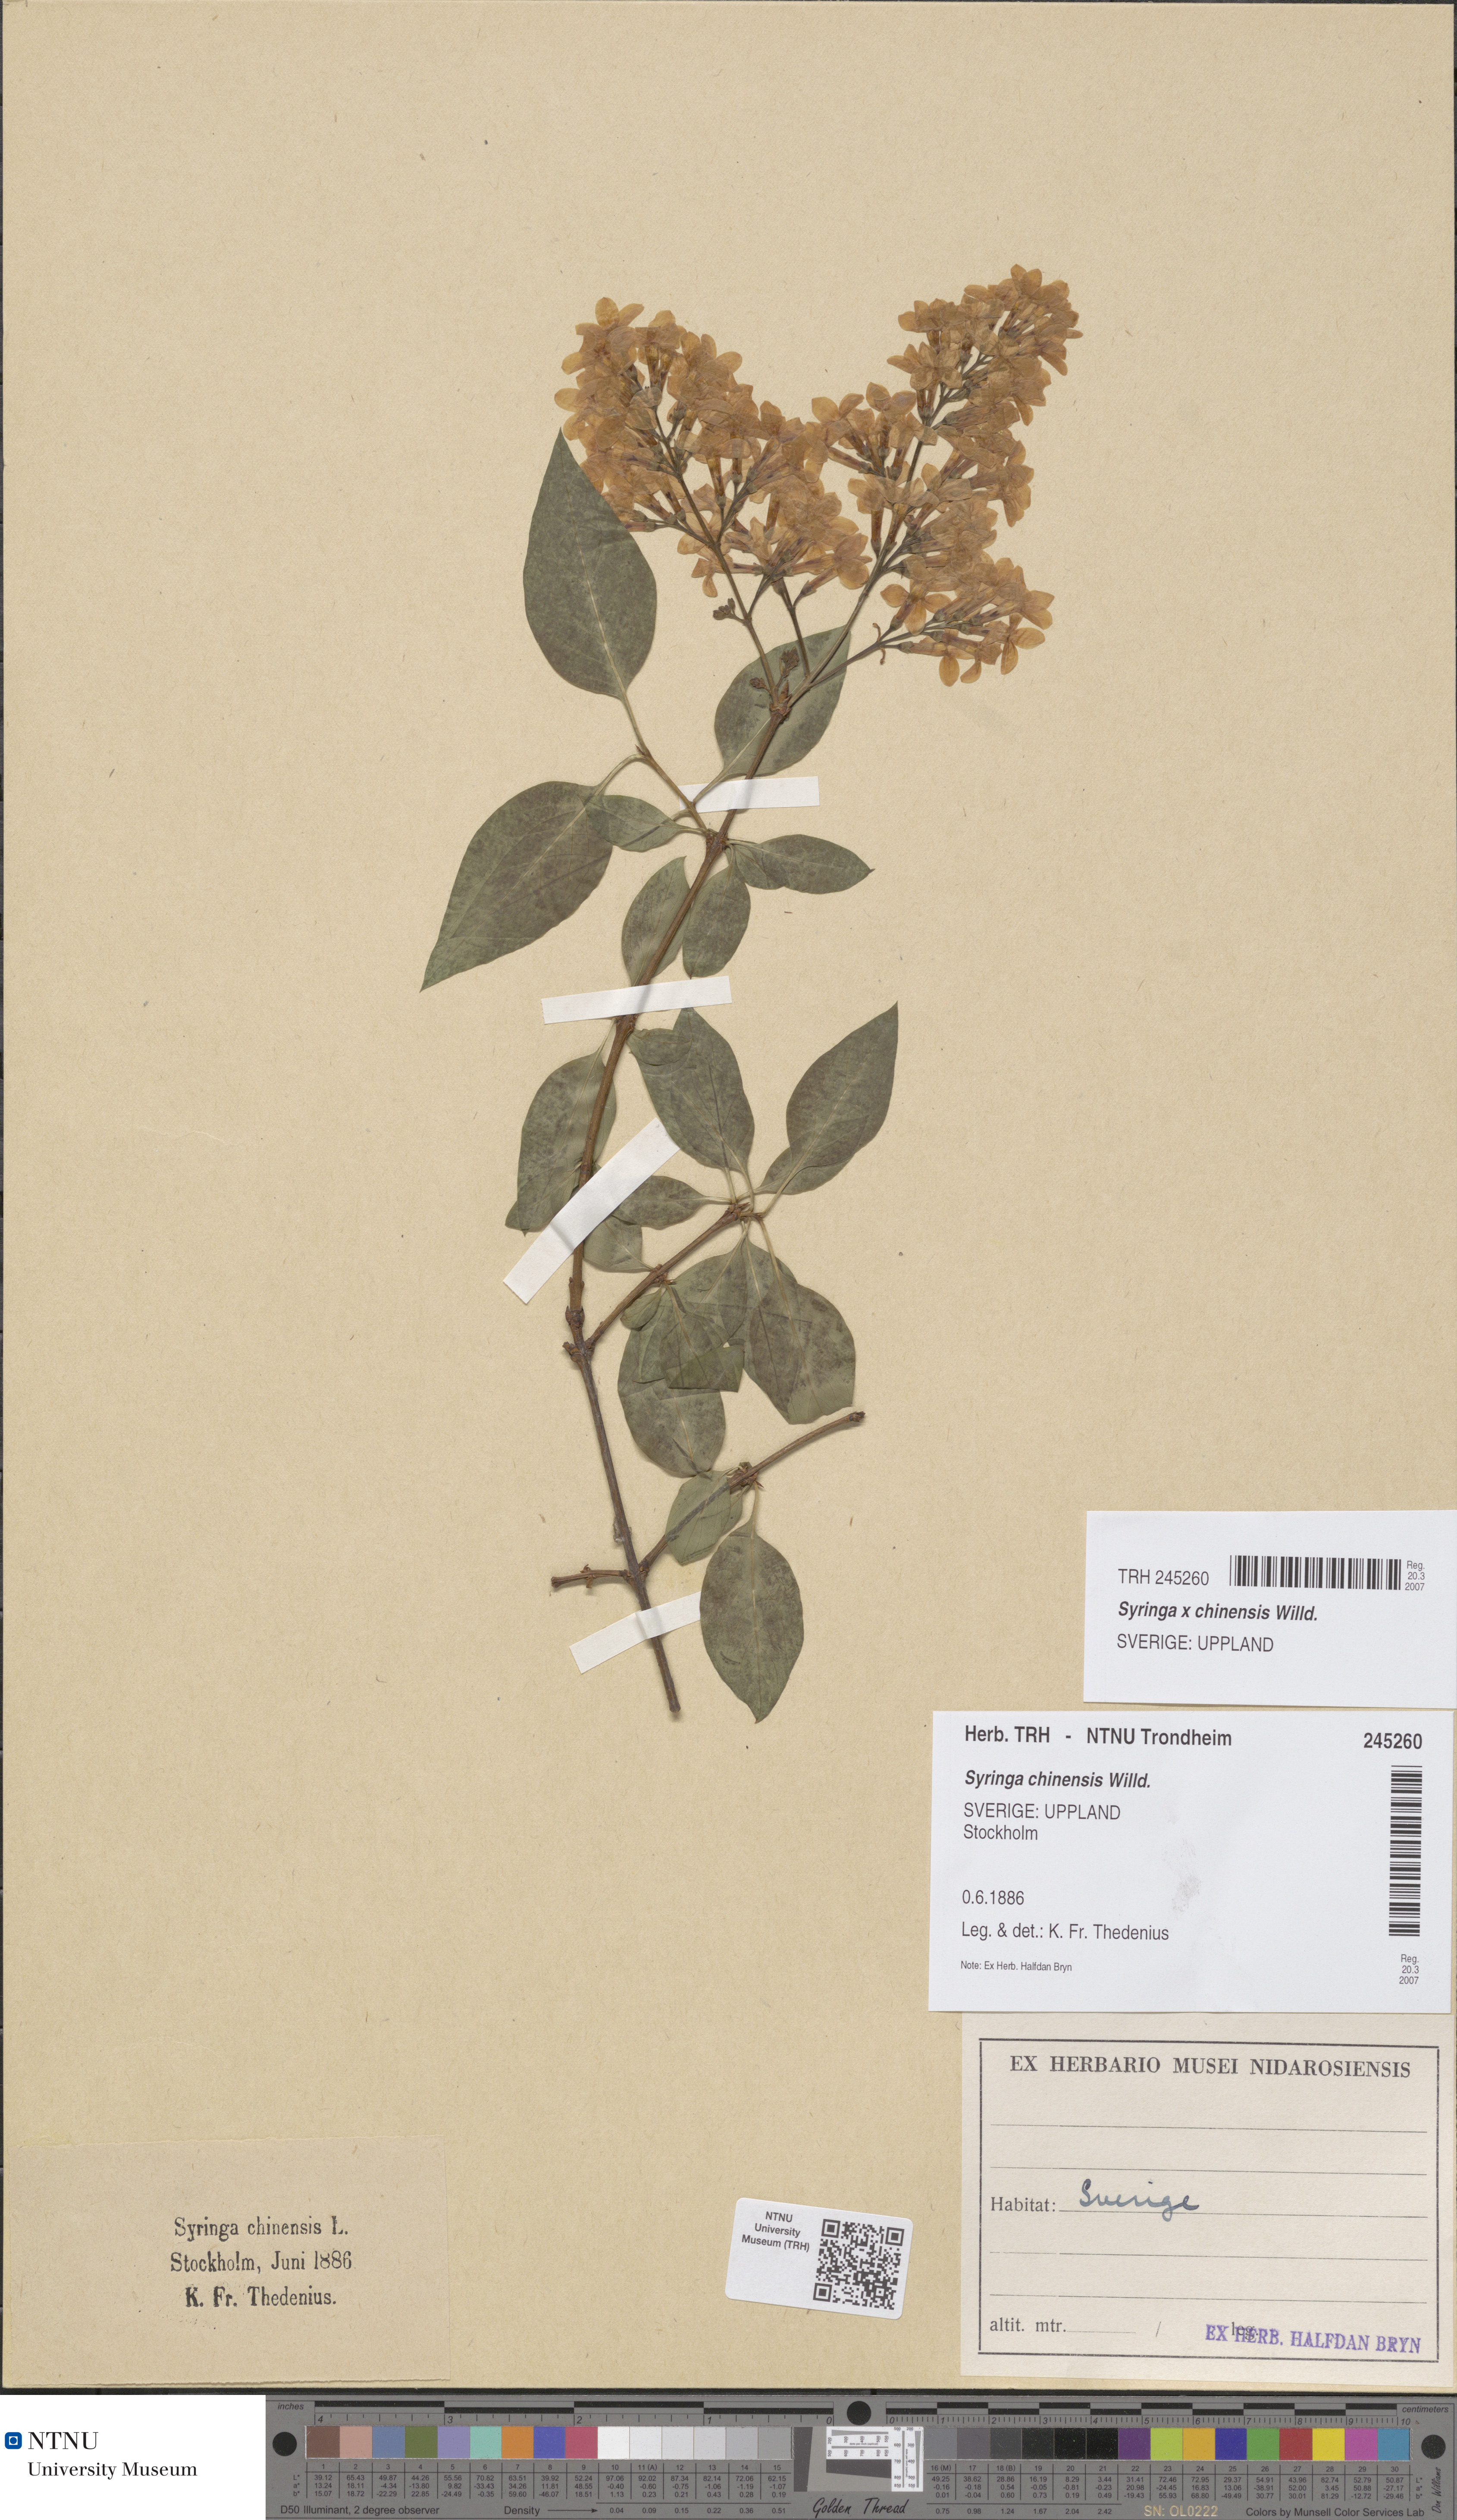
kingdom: Plantae
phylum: Tracheophyta
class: Magnoliopsida
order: Lamiales
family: Oleaceae
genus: Syringa
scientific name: Syringa chinensis
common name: Chinese lilac
